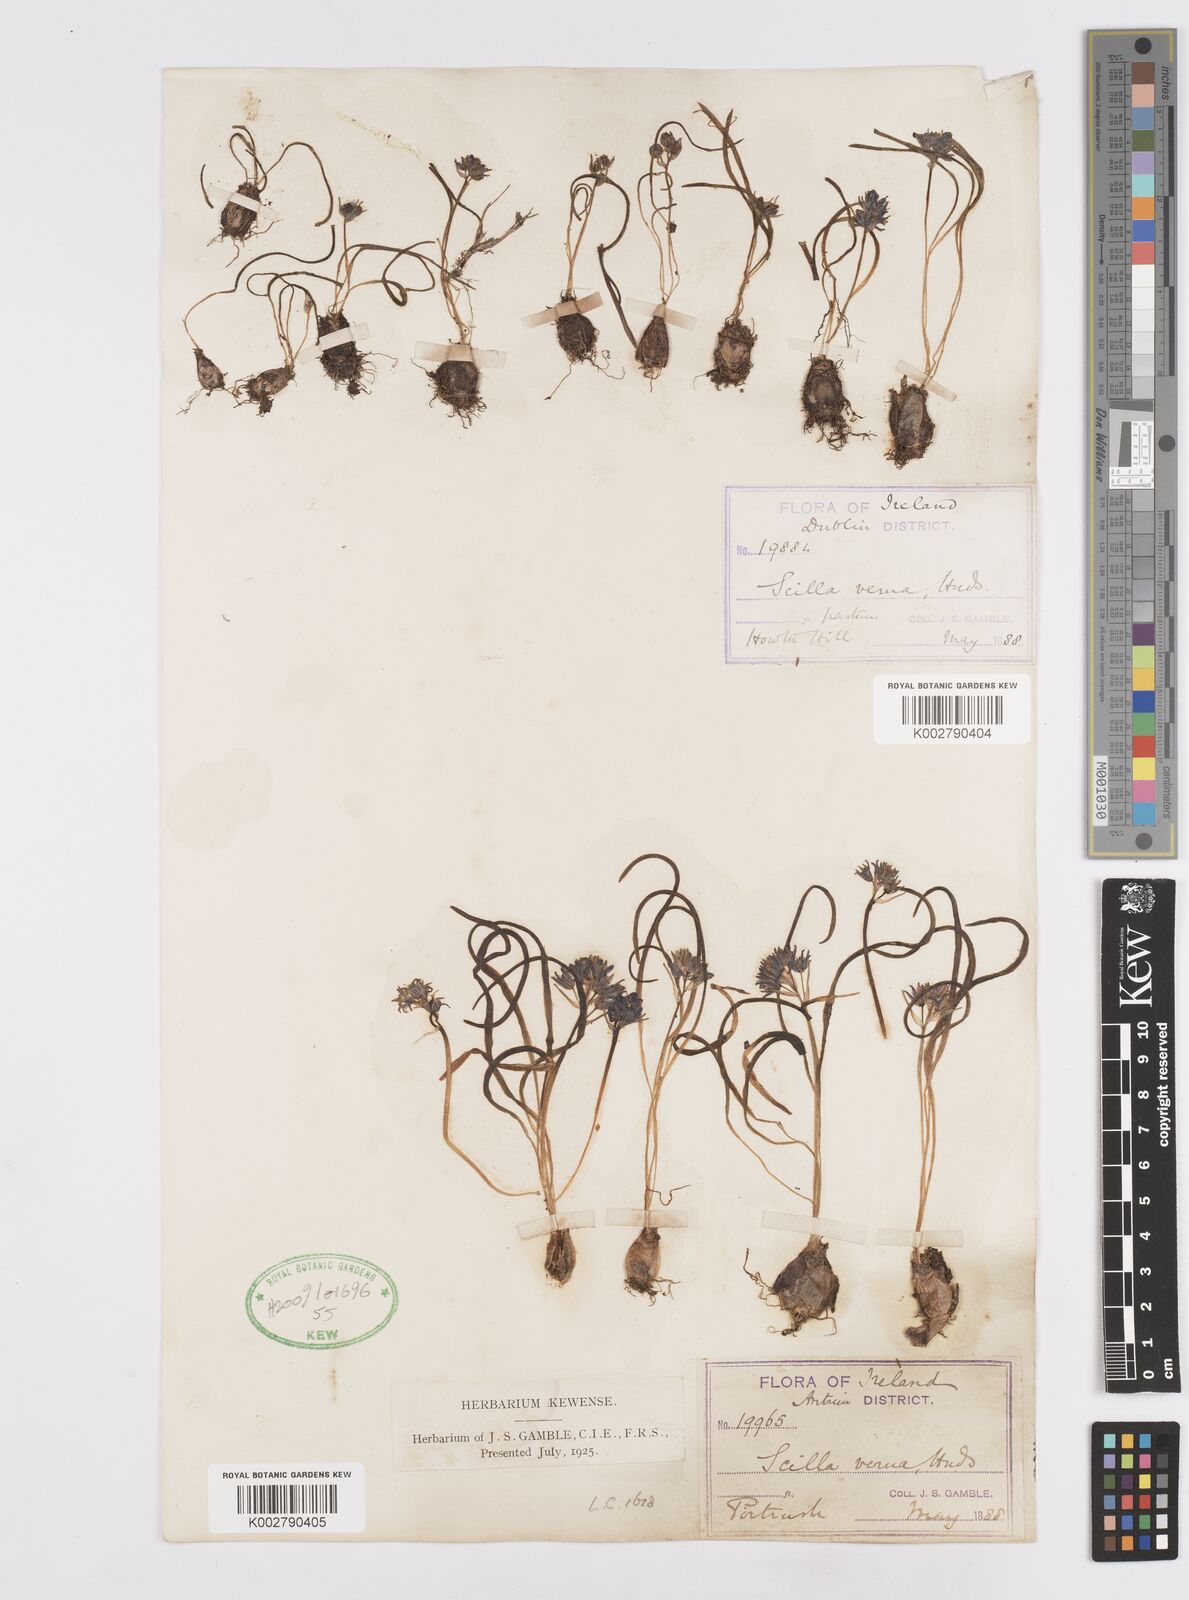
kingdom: Plantae
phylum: Tracheophyta
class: Liliopsida
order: Asparagales
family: Asparagaceae
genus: Scilla
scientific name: Scilla verna
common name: Spring squill
